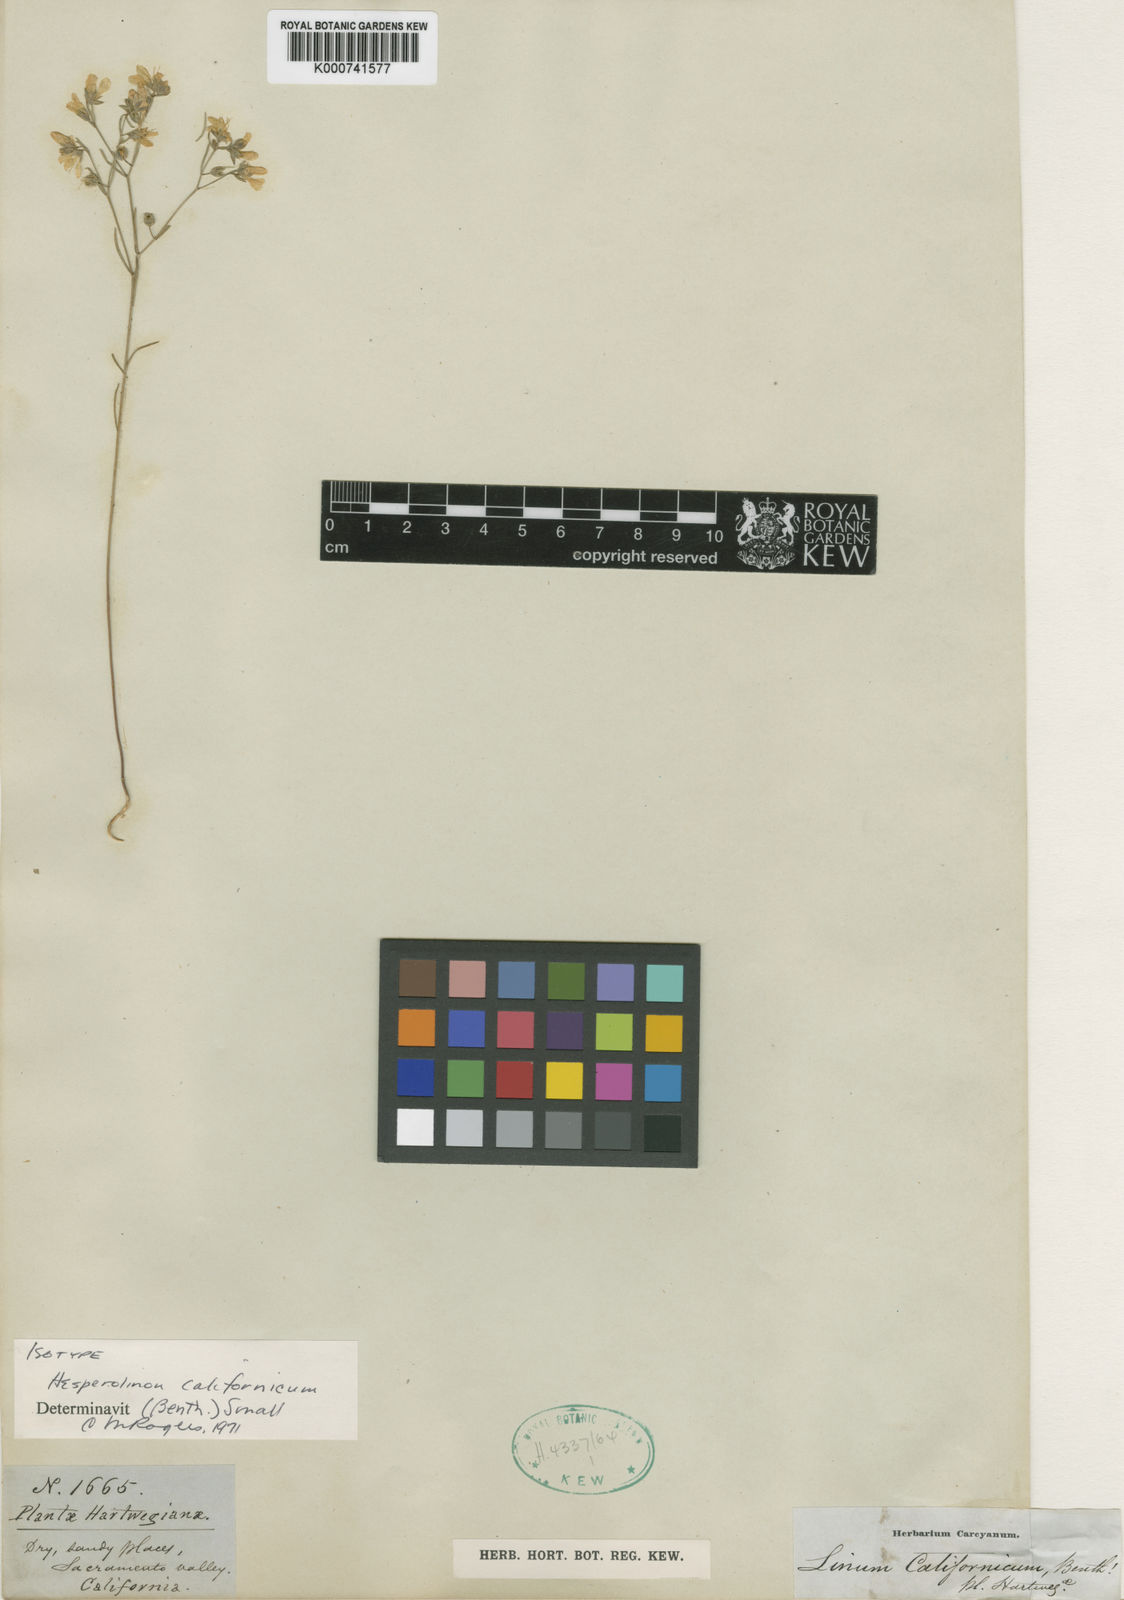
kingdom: Plantae
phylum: Tracheophyta
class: Magnoliopsida
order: Malpighiales
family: Linaceae
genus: Hesperolinon
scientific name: Hesperolinon californicum
